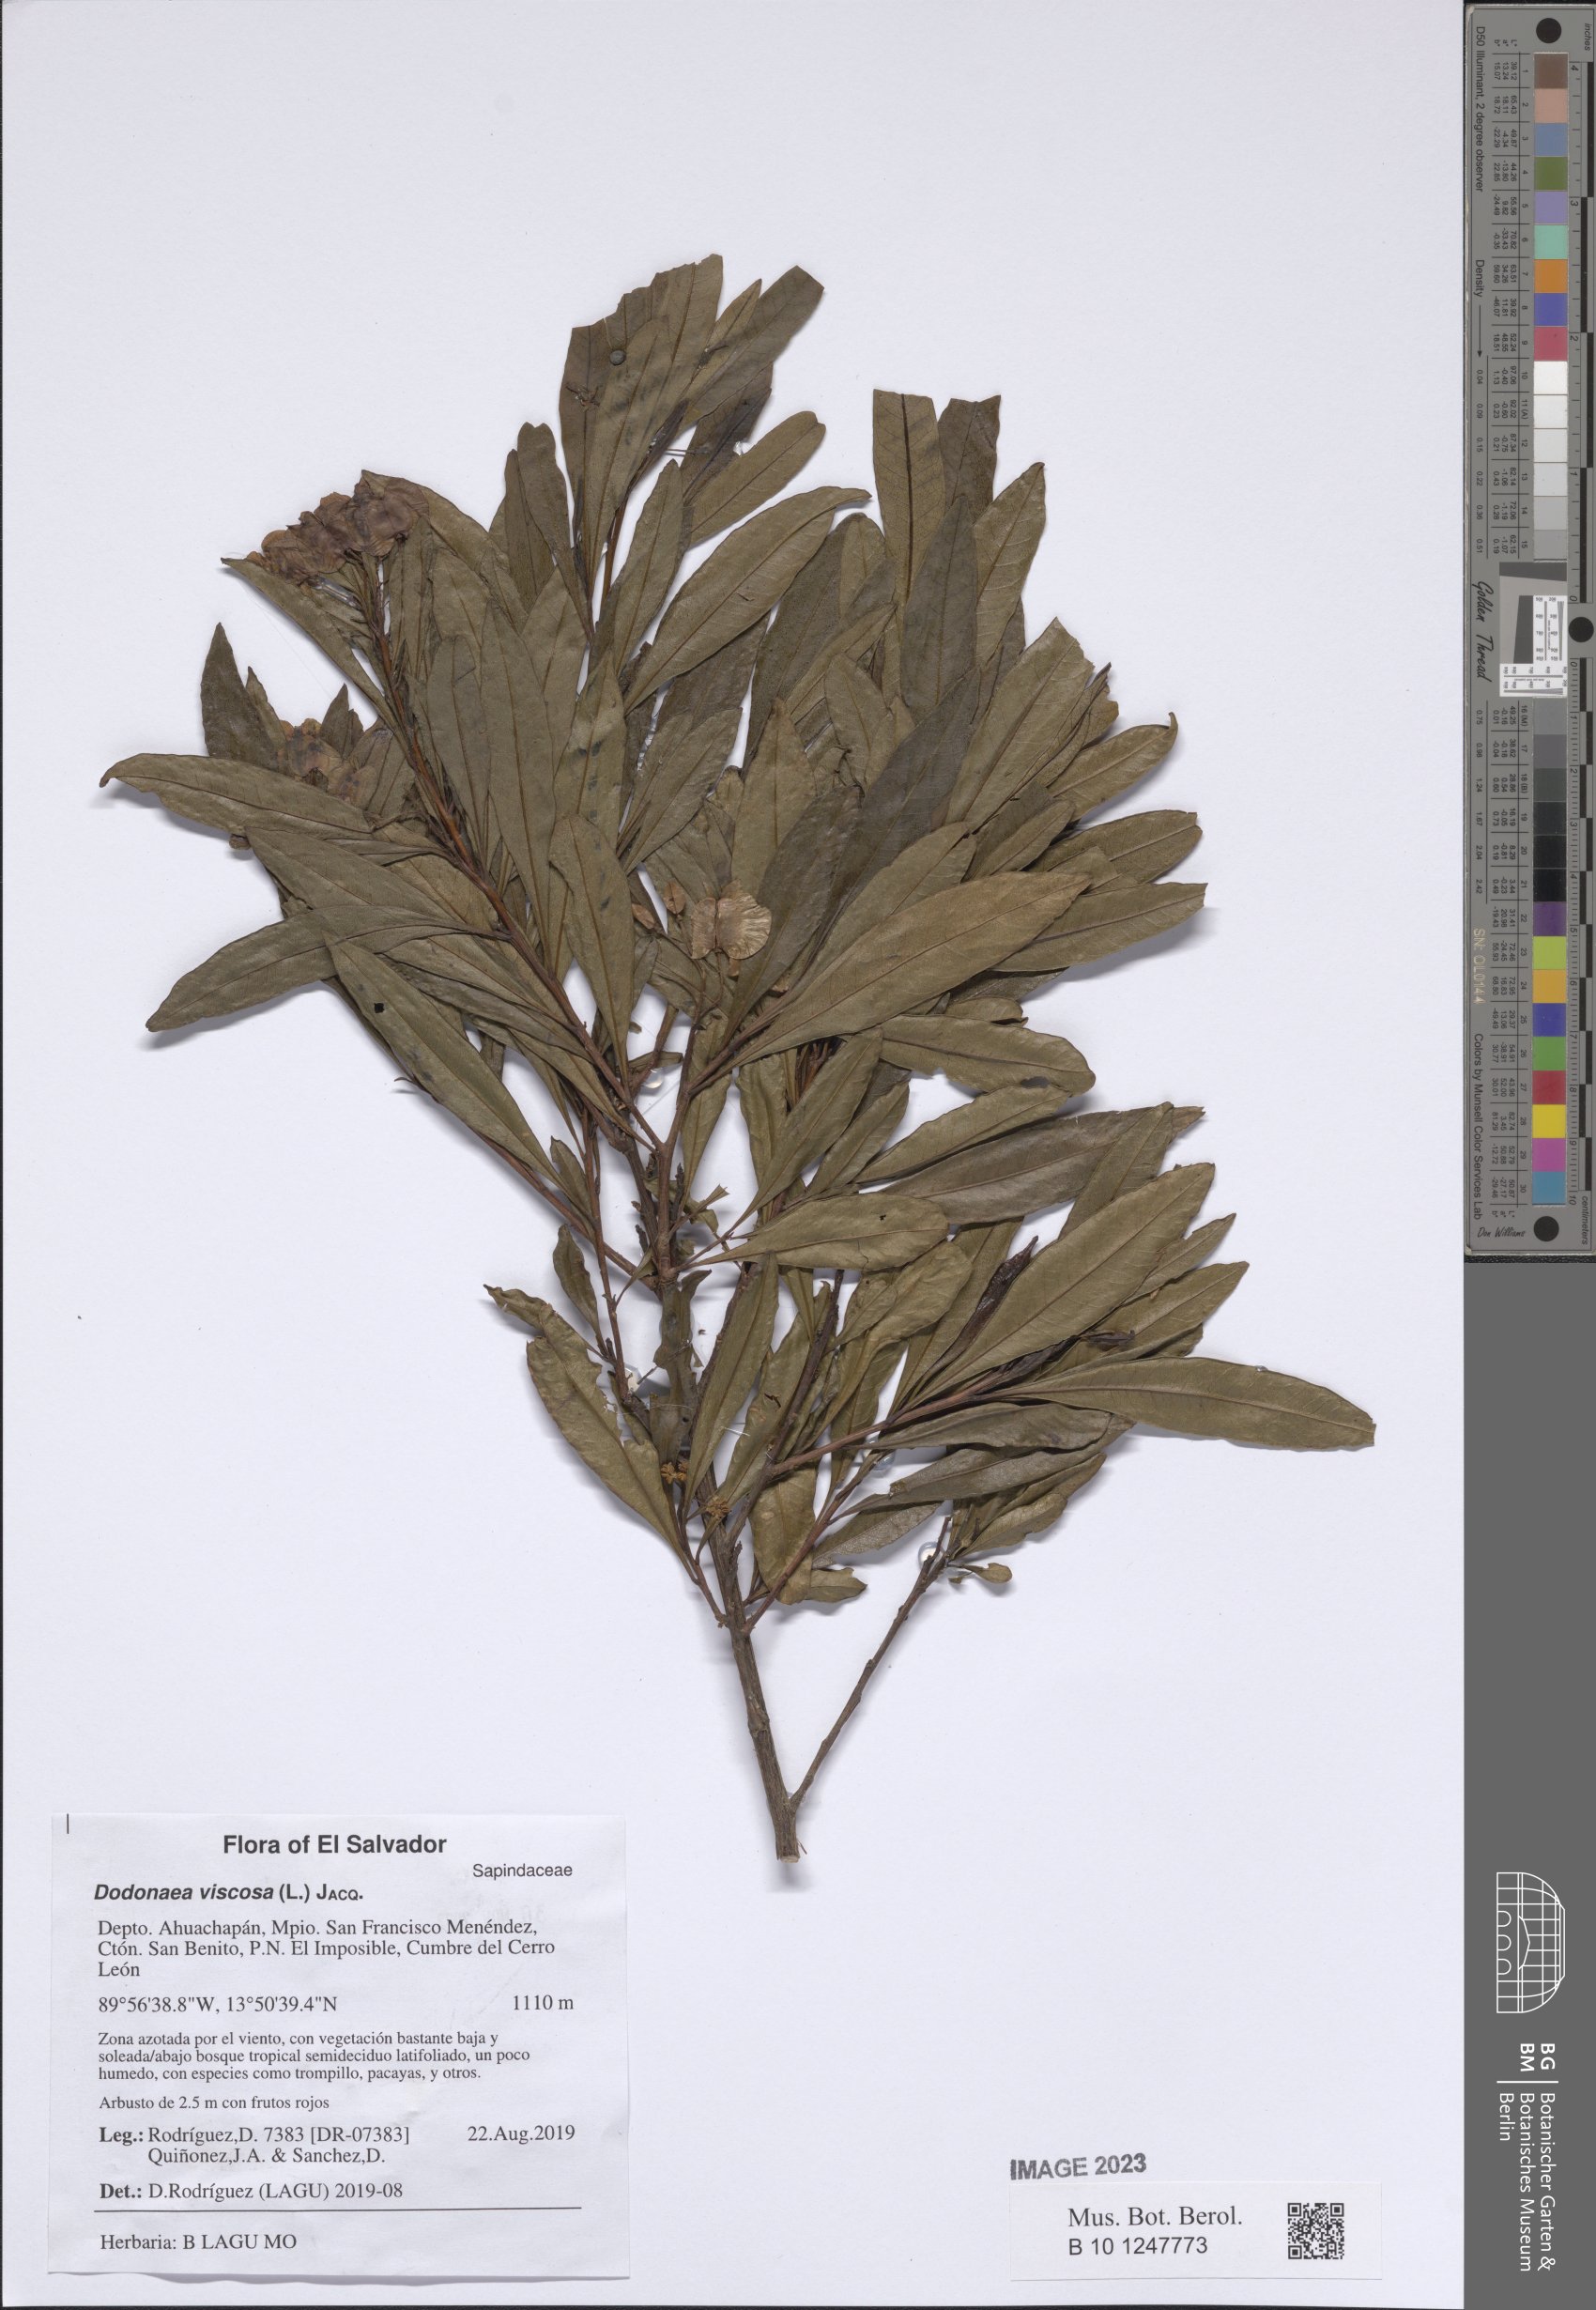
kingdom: Plantae
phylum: Tracheophyta
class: Magnoliopsida
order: Sapindales
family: Sapindaceae
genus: Dodonaea
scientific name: Dodonaea viscosa
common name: Hopbush
